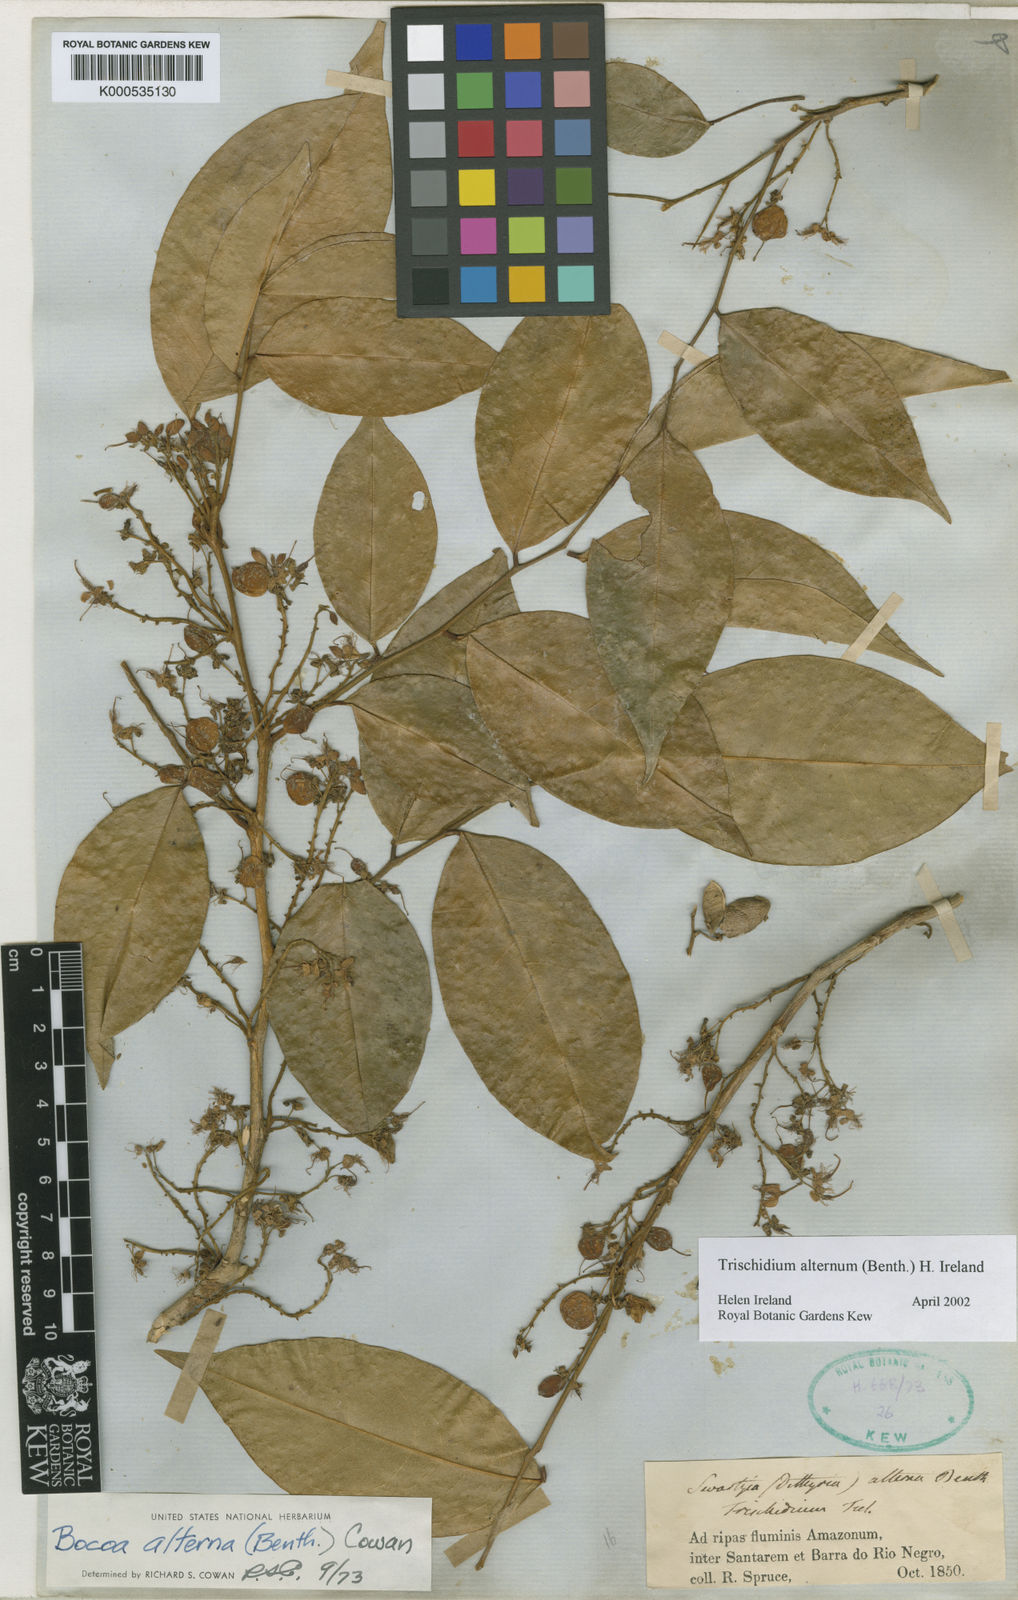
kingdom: Plantae
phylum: Tracheophyta
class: Magnoliopsida
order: Fabales
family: Fabaceae
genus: Trischidium
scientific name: Trischidium alternum
